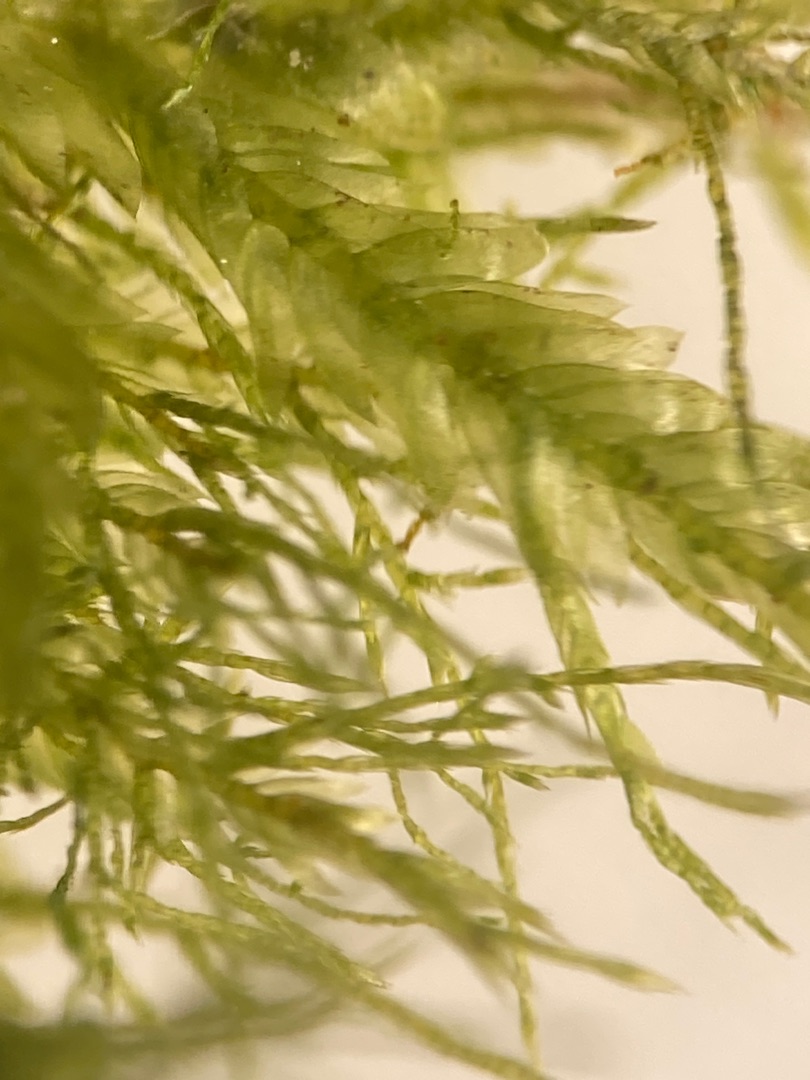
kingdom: Plantae
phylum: Bryophyta
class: Bryopsida
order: Hypnales
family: Neckeraceae
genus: Alleniella
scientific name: Alleniella complanata
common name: Almindelig fladmos
